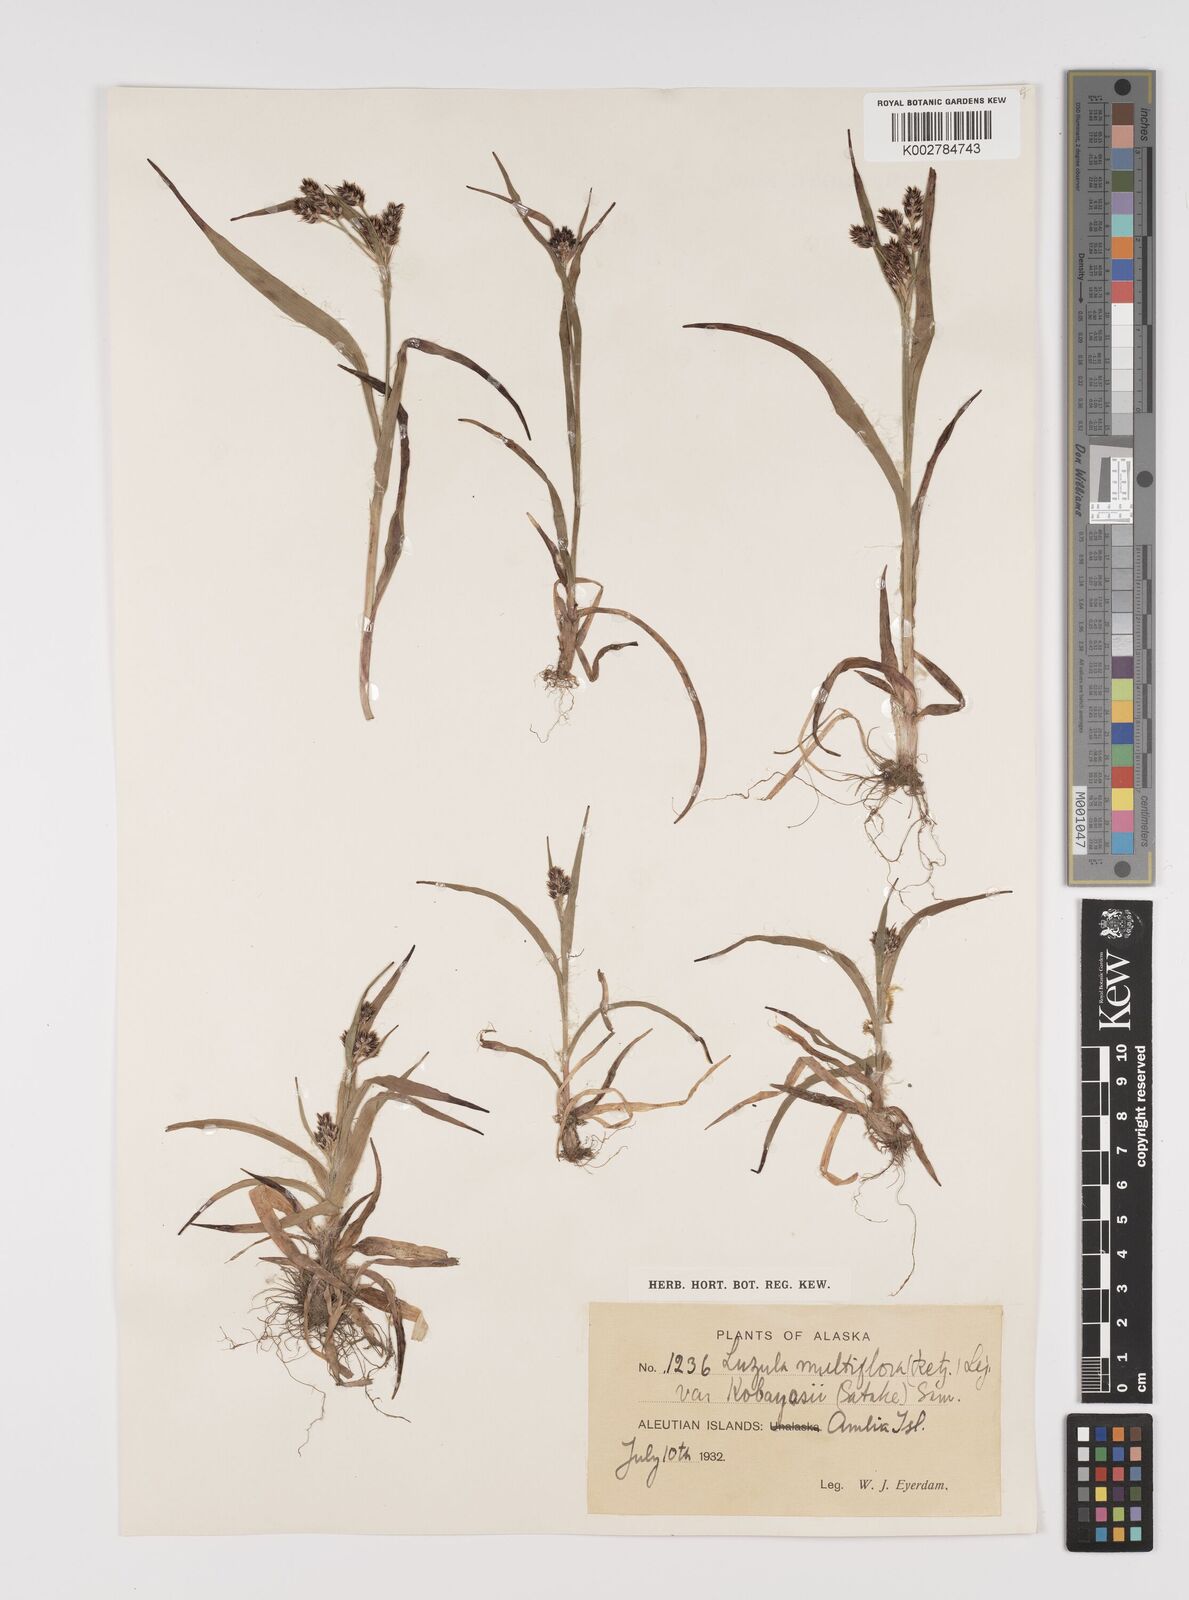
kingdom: Plantae
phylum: Tracheophyta
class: Liliopsida
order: Poales
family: Juncaceae
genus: Luzula
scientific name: Luzula campestris
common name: Field wood-rush
